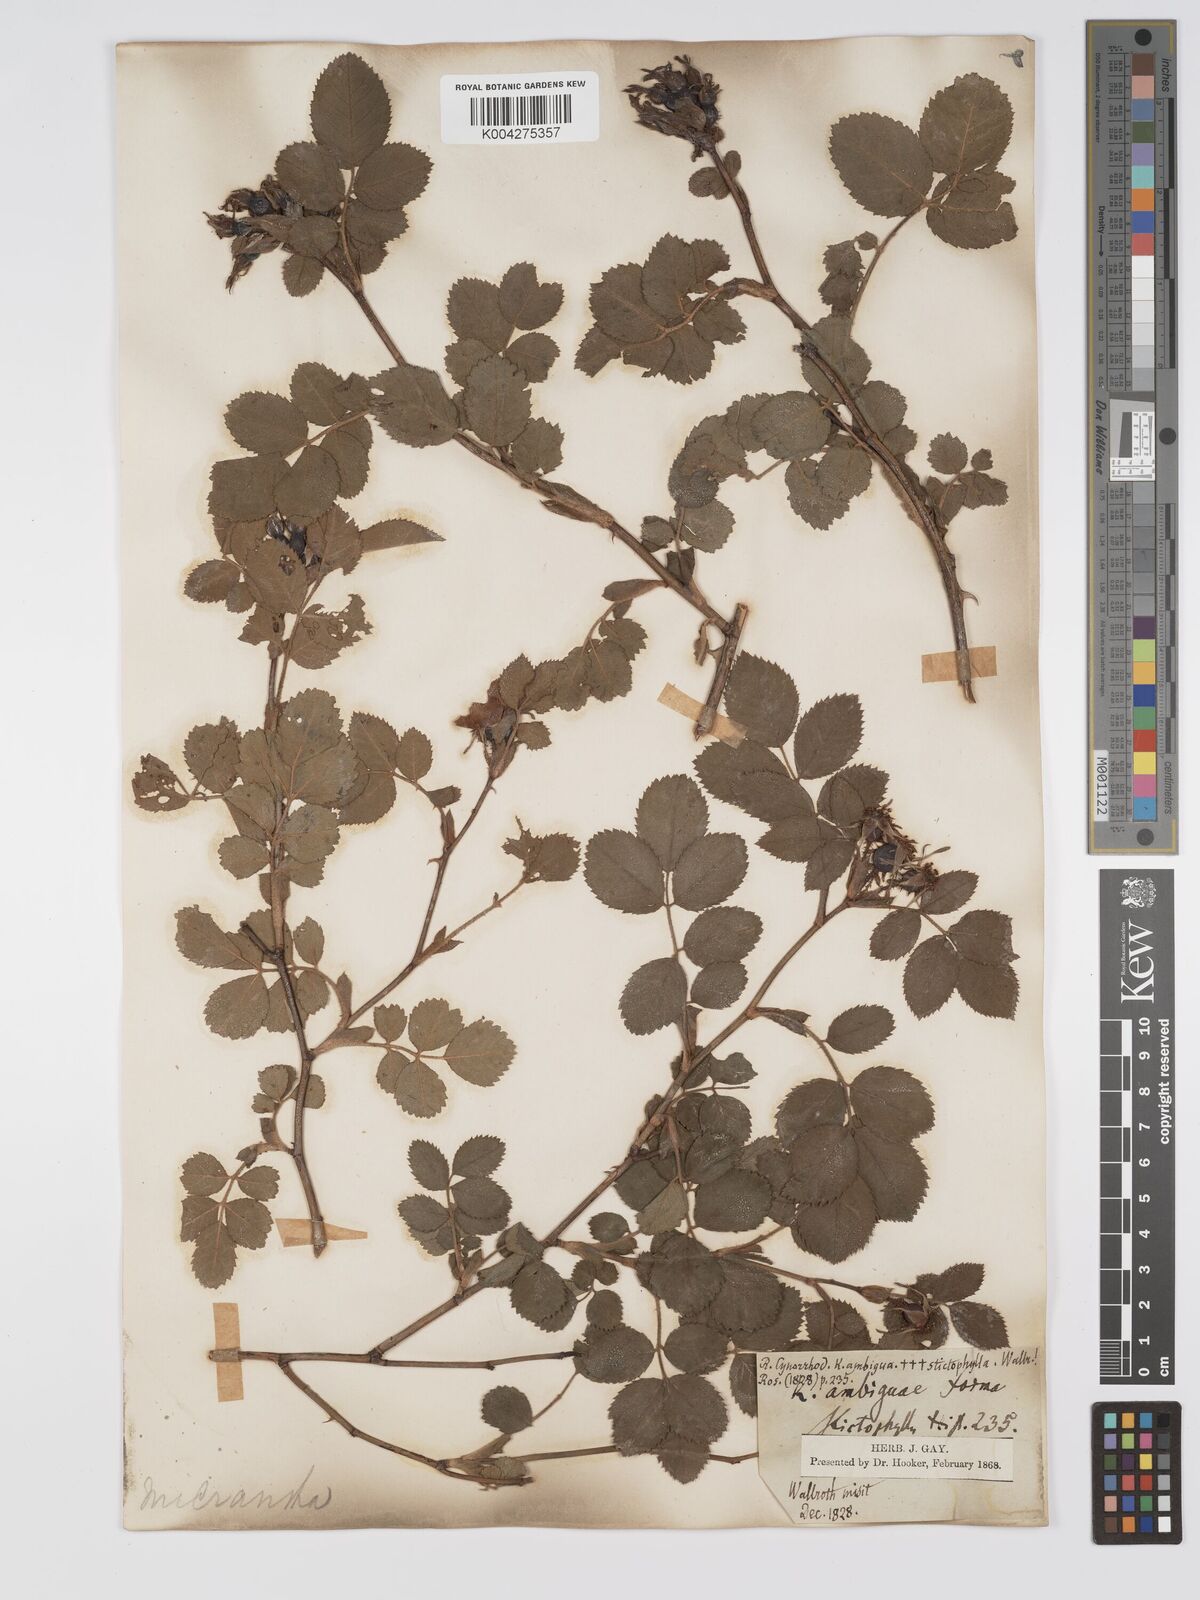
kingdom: Plantae
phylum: Tracheophyta
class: Magnoliopsida
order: Rosales
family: Rosaceae
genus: Rosa
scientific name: Rosa
